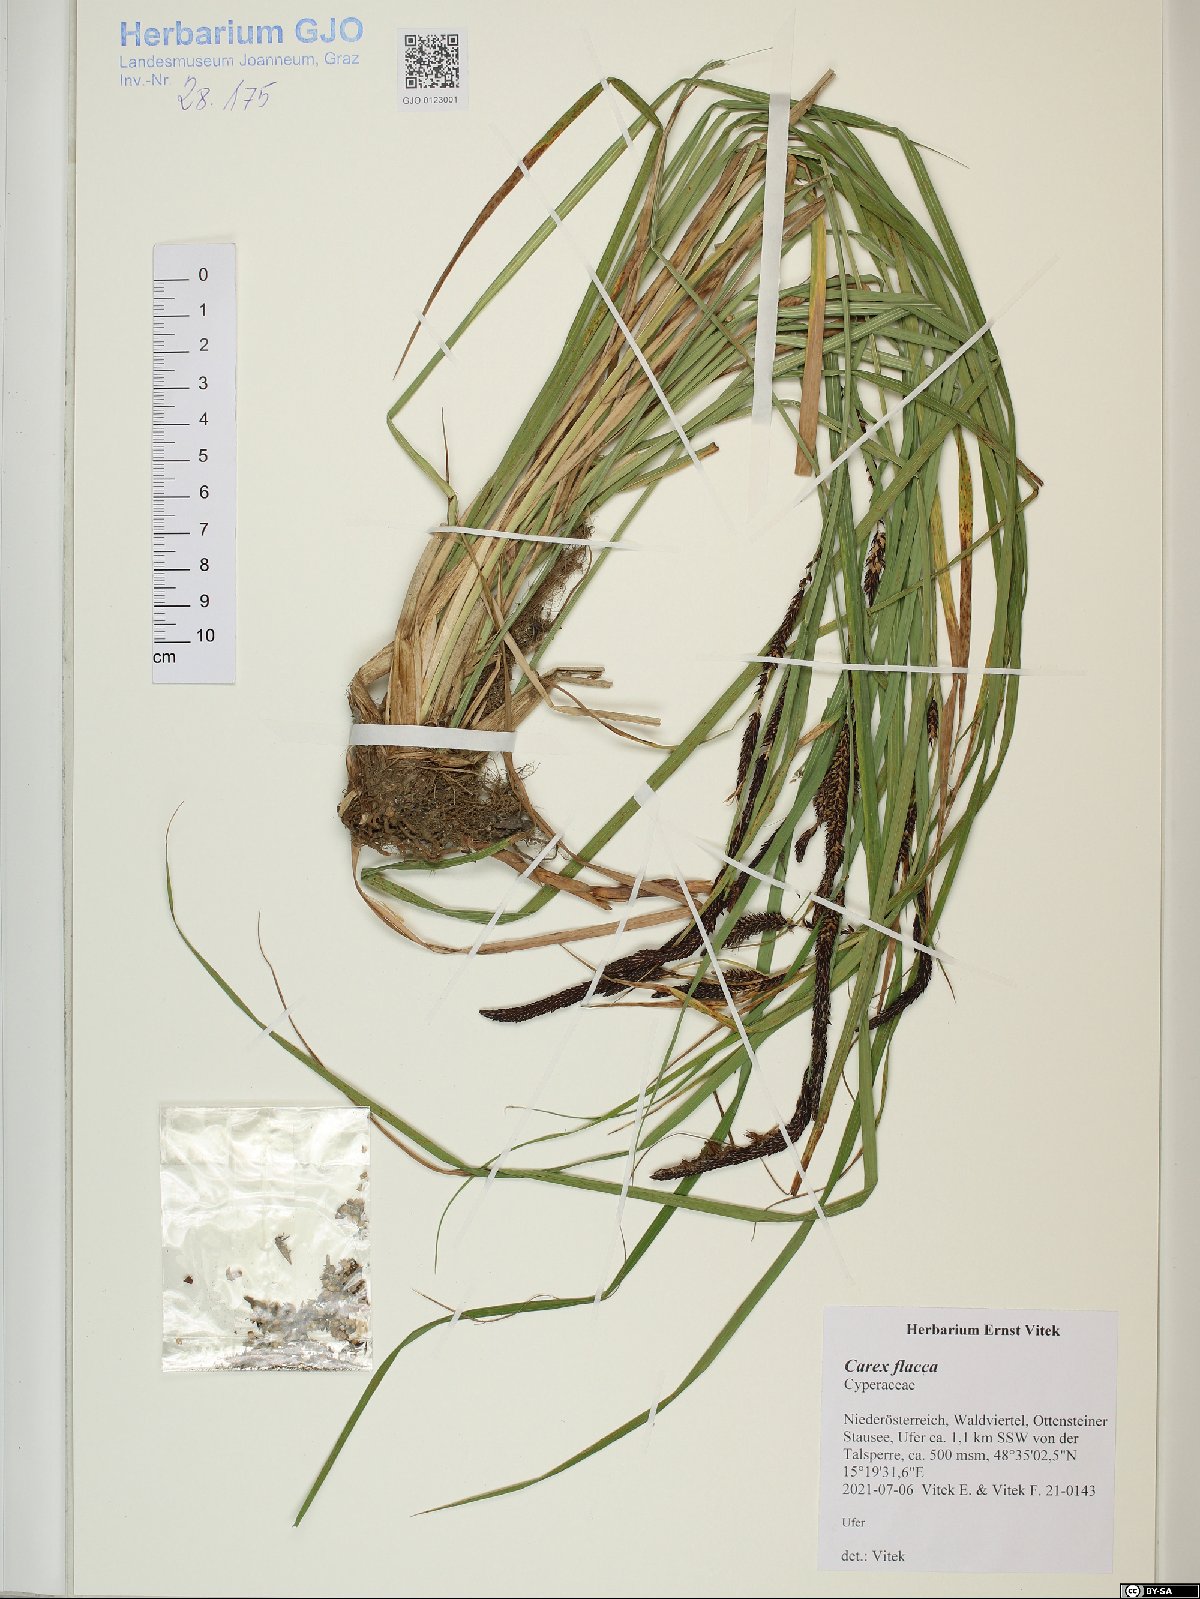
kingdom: Plantae
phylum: Tracheophyta
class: Liliopsida
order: Poales
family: Cyperaceae
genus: Carex
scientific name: Carex flacca
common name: Glaucous sedge
